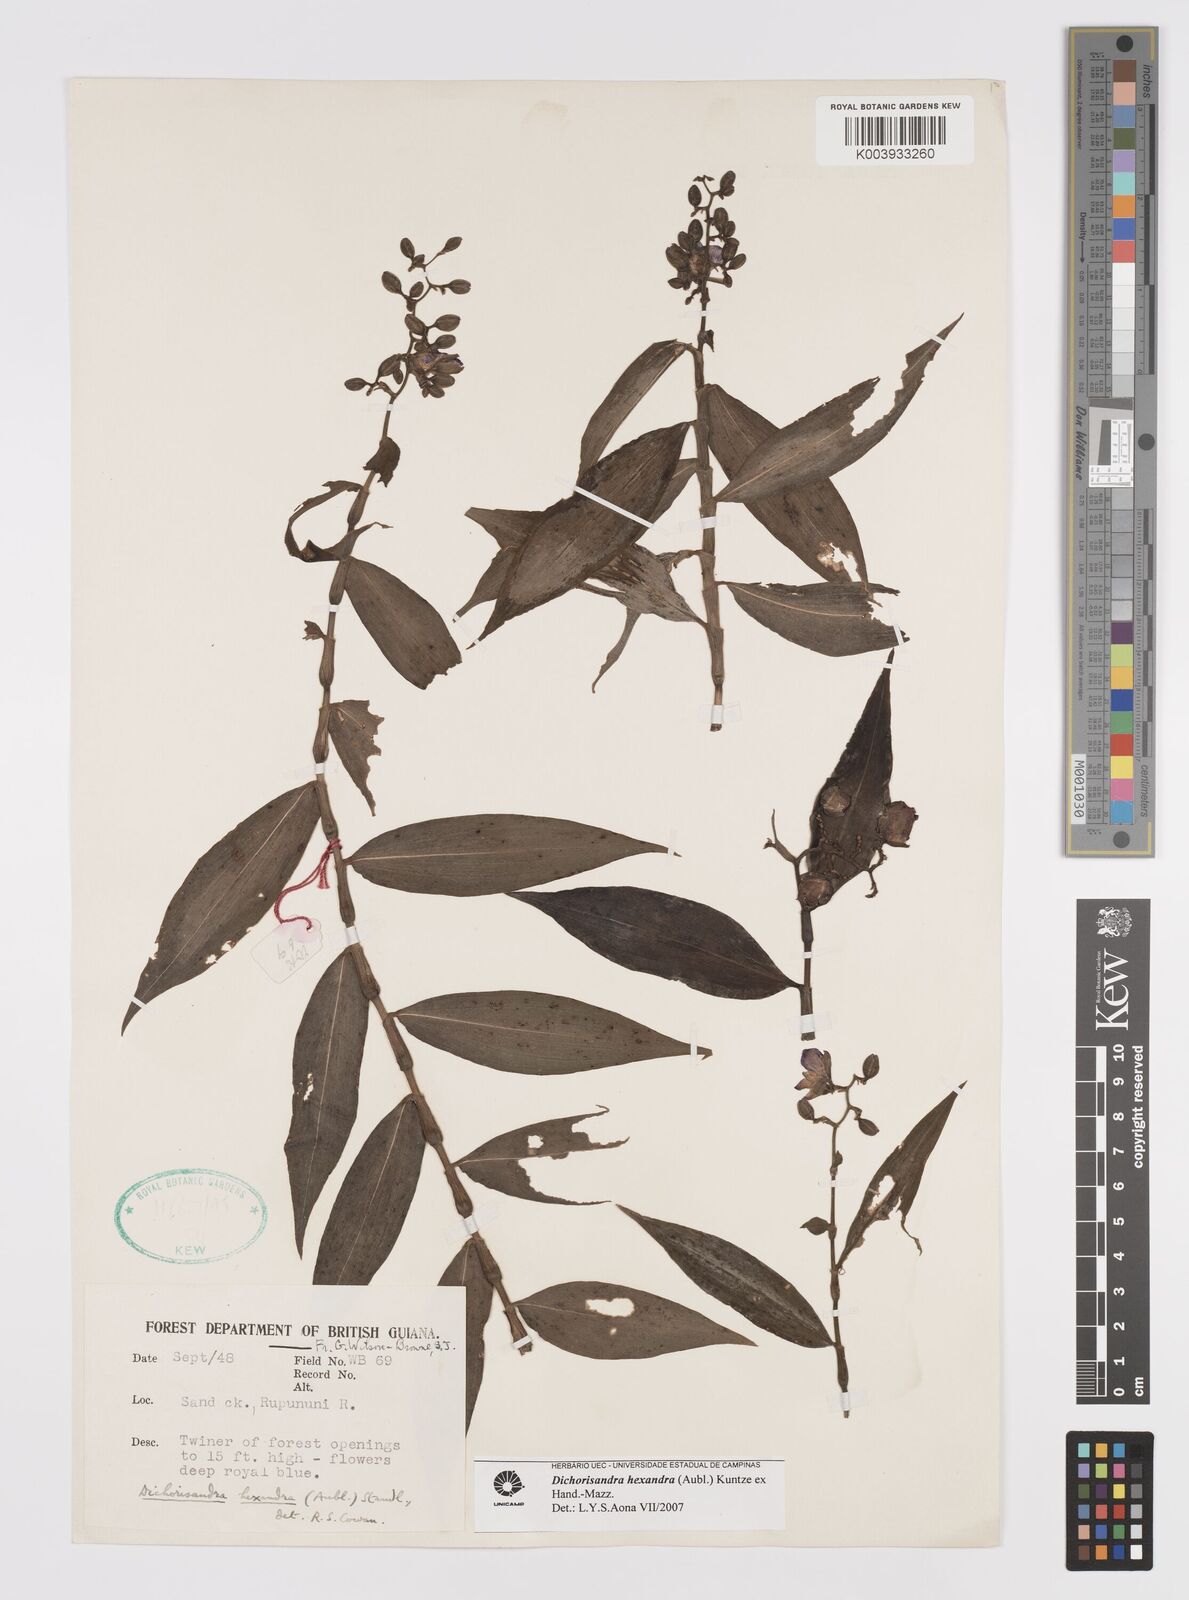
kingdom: Plantae
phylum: Tracheophyta
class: Liliopsida
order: Commelinales
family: Commelinaceae
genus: Dichorisandra
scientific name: Dichorisandra hexandra
